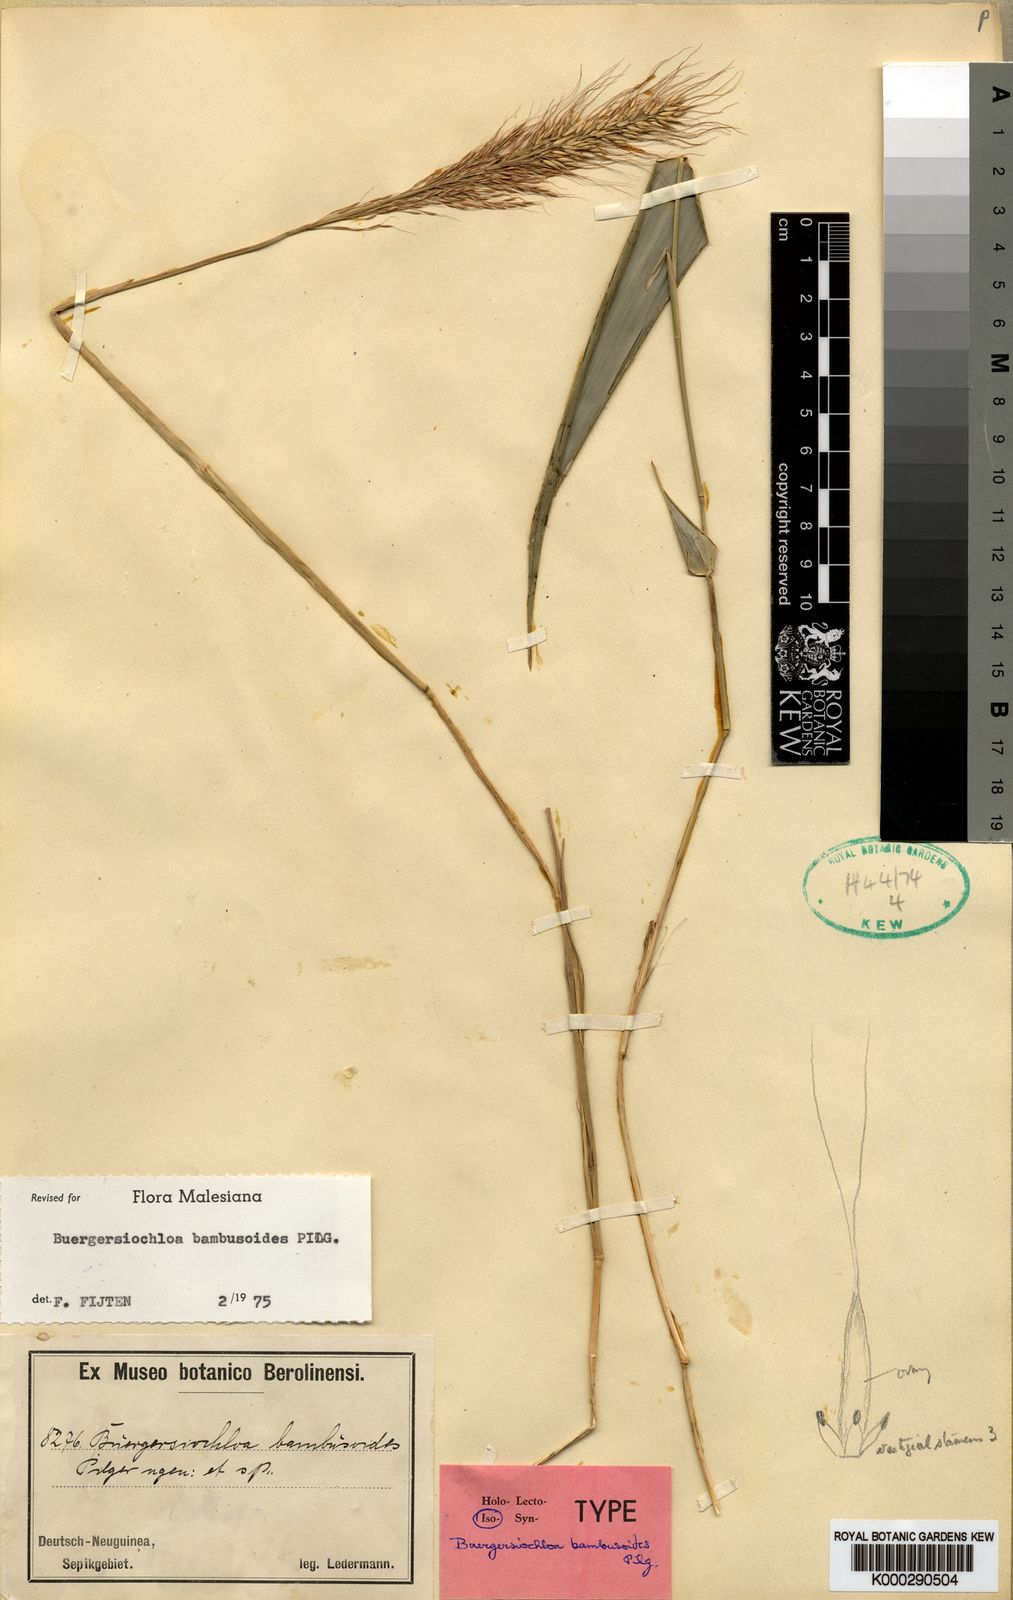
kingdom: Plantae
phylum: Tracheophyta
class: Liliopsida
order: Poales
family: Poaceae
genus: Buergersiochloa
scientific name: Buergersiochloa bambusoides
